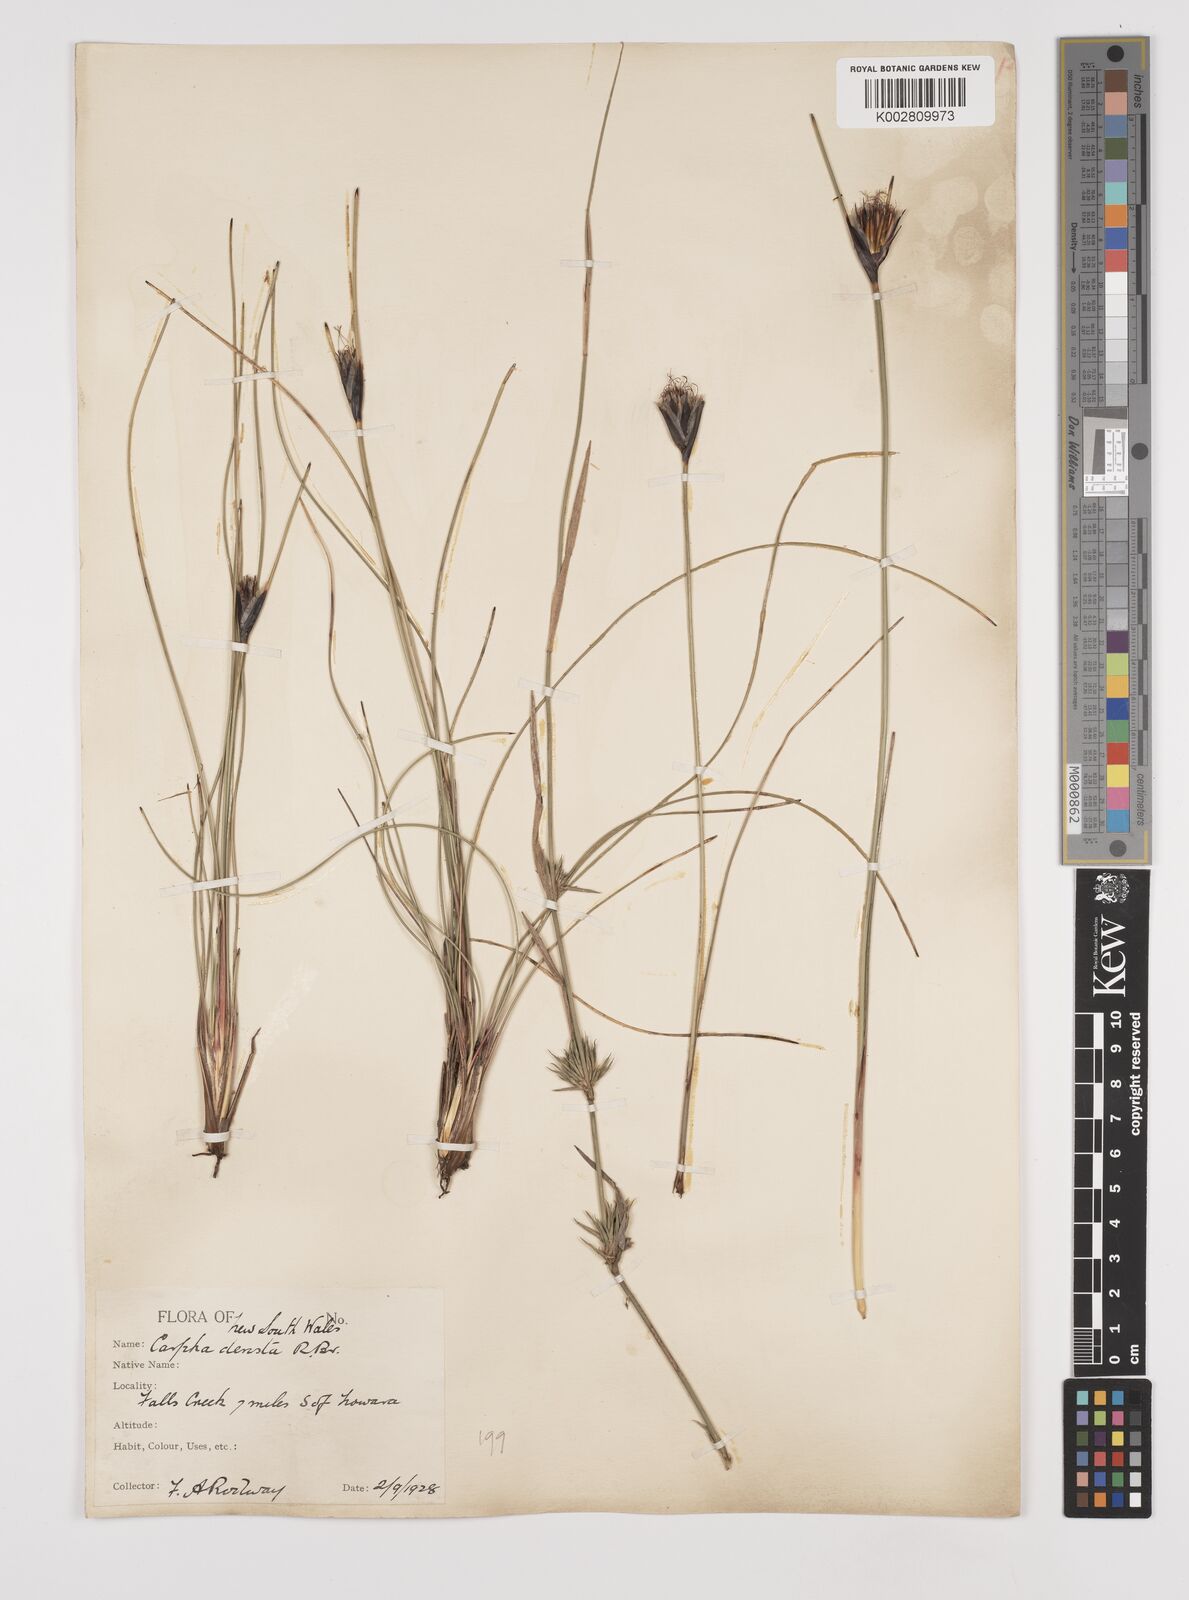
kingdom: Plantae
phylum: Tracheophyta
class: Liliopsida
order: Poales
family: Cyperaceae
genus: Ptilothrix
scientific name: Ptilothrix deusta
